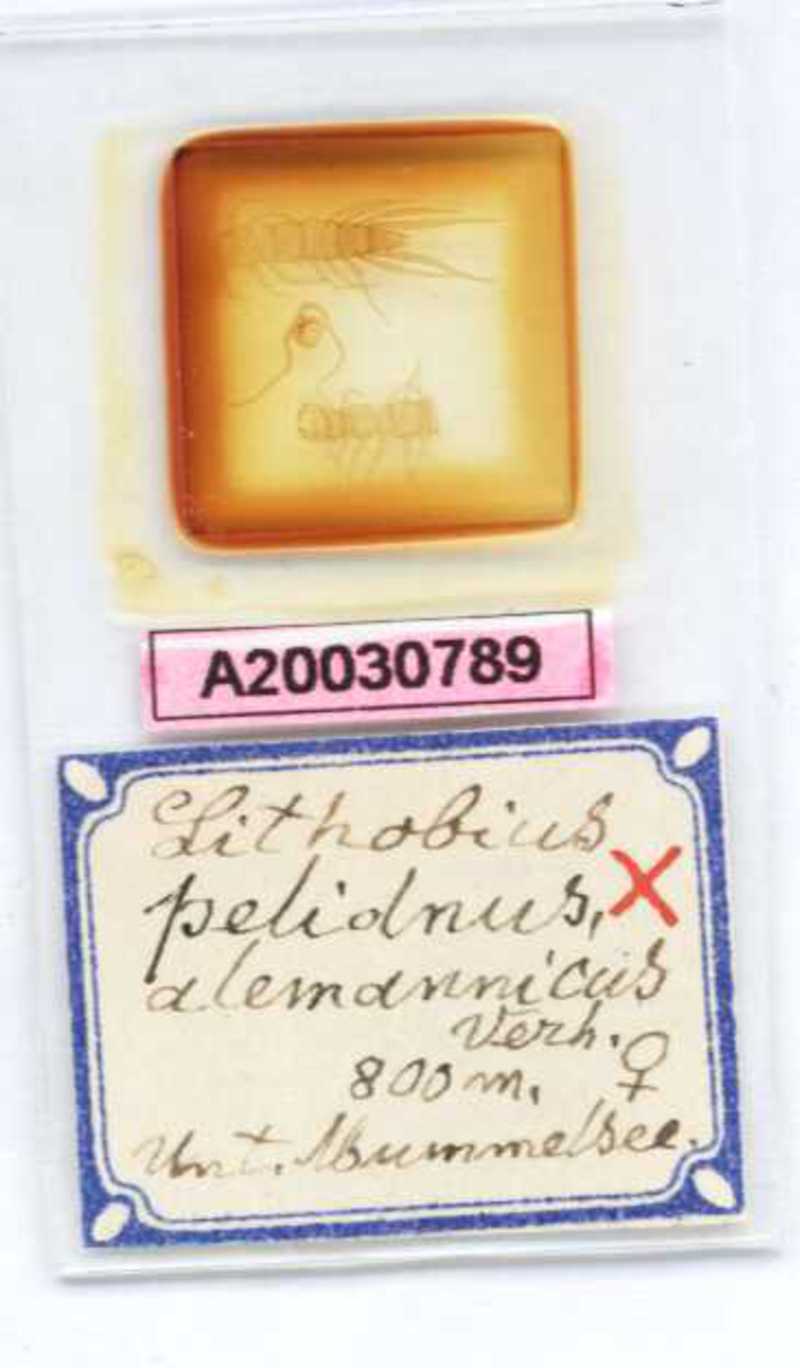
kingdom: Animalia
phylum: Arthropoda
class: Chilopoda
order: Lithobiomorpha
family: Lithobiidae
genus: Lithobius
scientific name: Lithobius pelidnus
